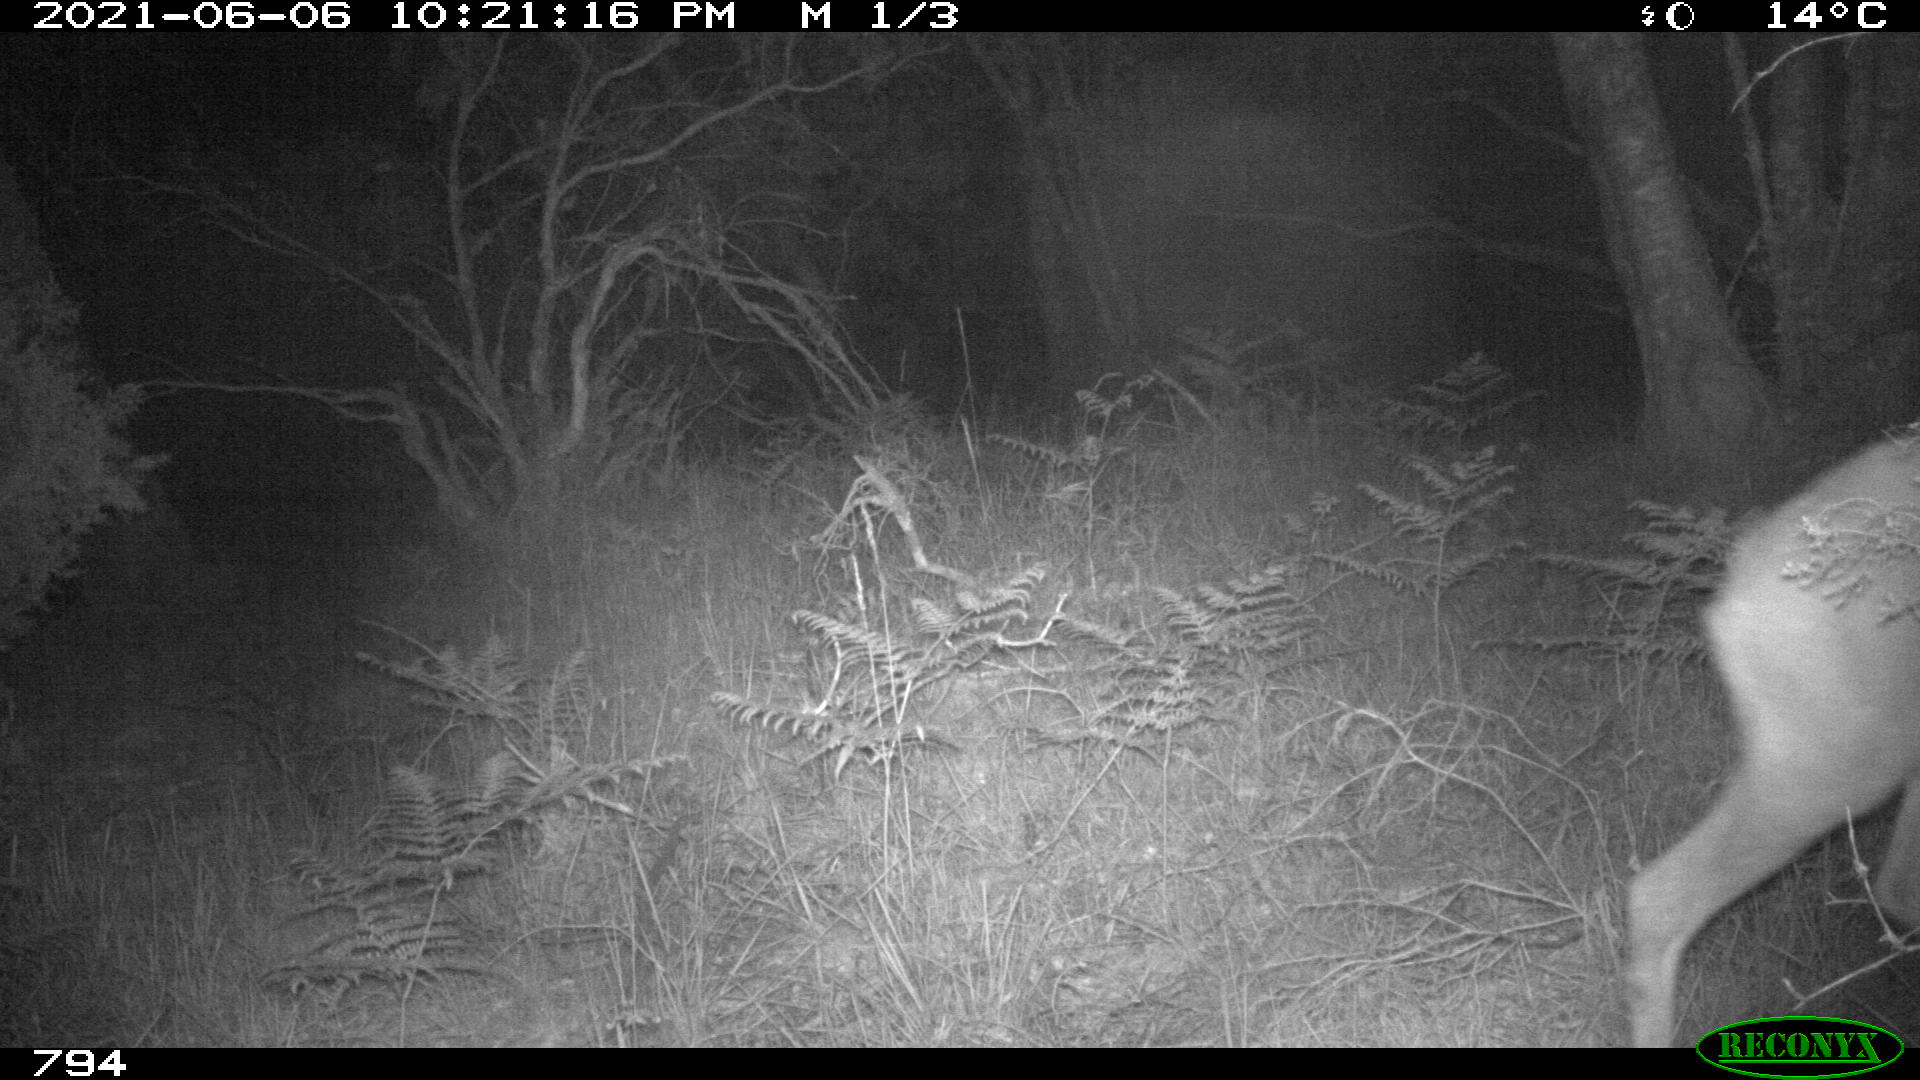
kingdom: Animalia
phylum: Chordata
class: Mammalia
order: Artiodactyla
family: Cervidae
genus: Capreolus
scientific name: Capreolus capreolus
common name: Western roe deer
